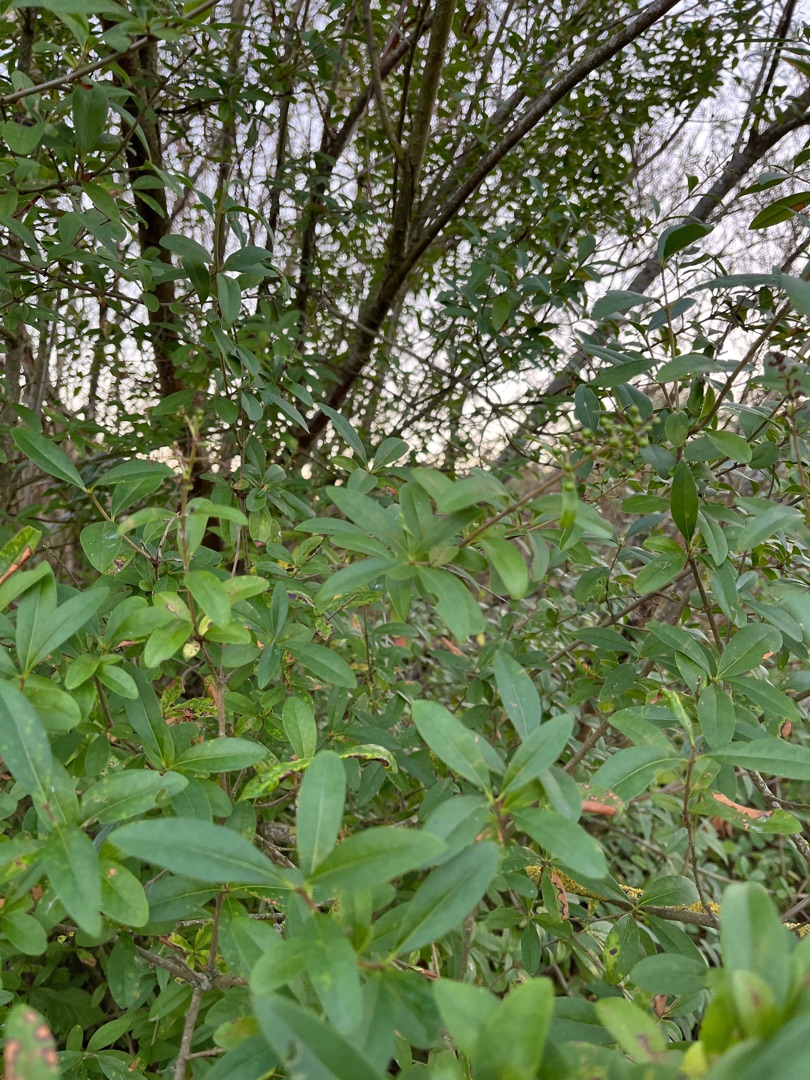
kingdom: Plantae
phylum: Tracheophyta
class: Magnoliopsida
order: Lamiales
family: Oleaceae
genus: Ligustrum
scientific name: Ligustrum vulgare
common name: Liguster
